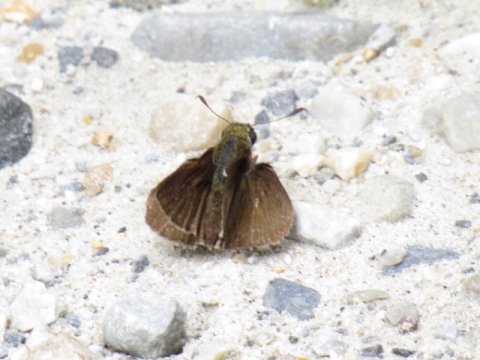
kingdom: Animalia
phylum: Arthropoda
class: Insecta
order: Lepidoptera
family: Hesperiidae
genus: Euphyes
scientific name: Euphyes vestris
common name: Dun Skipper
